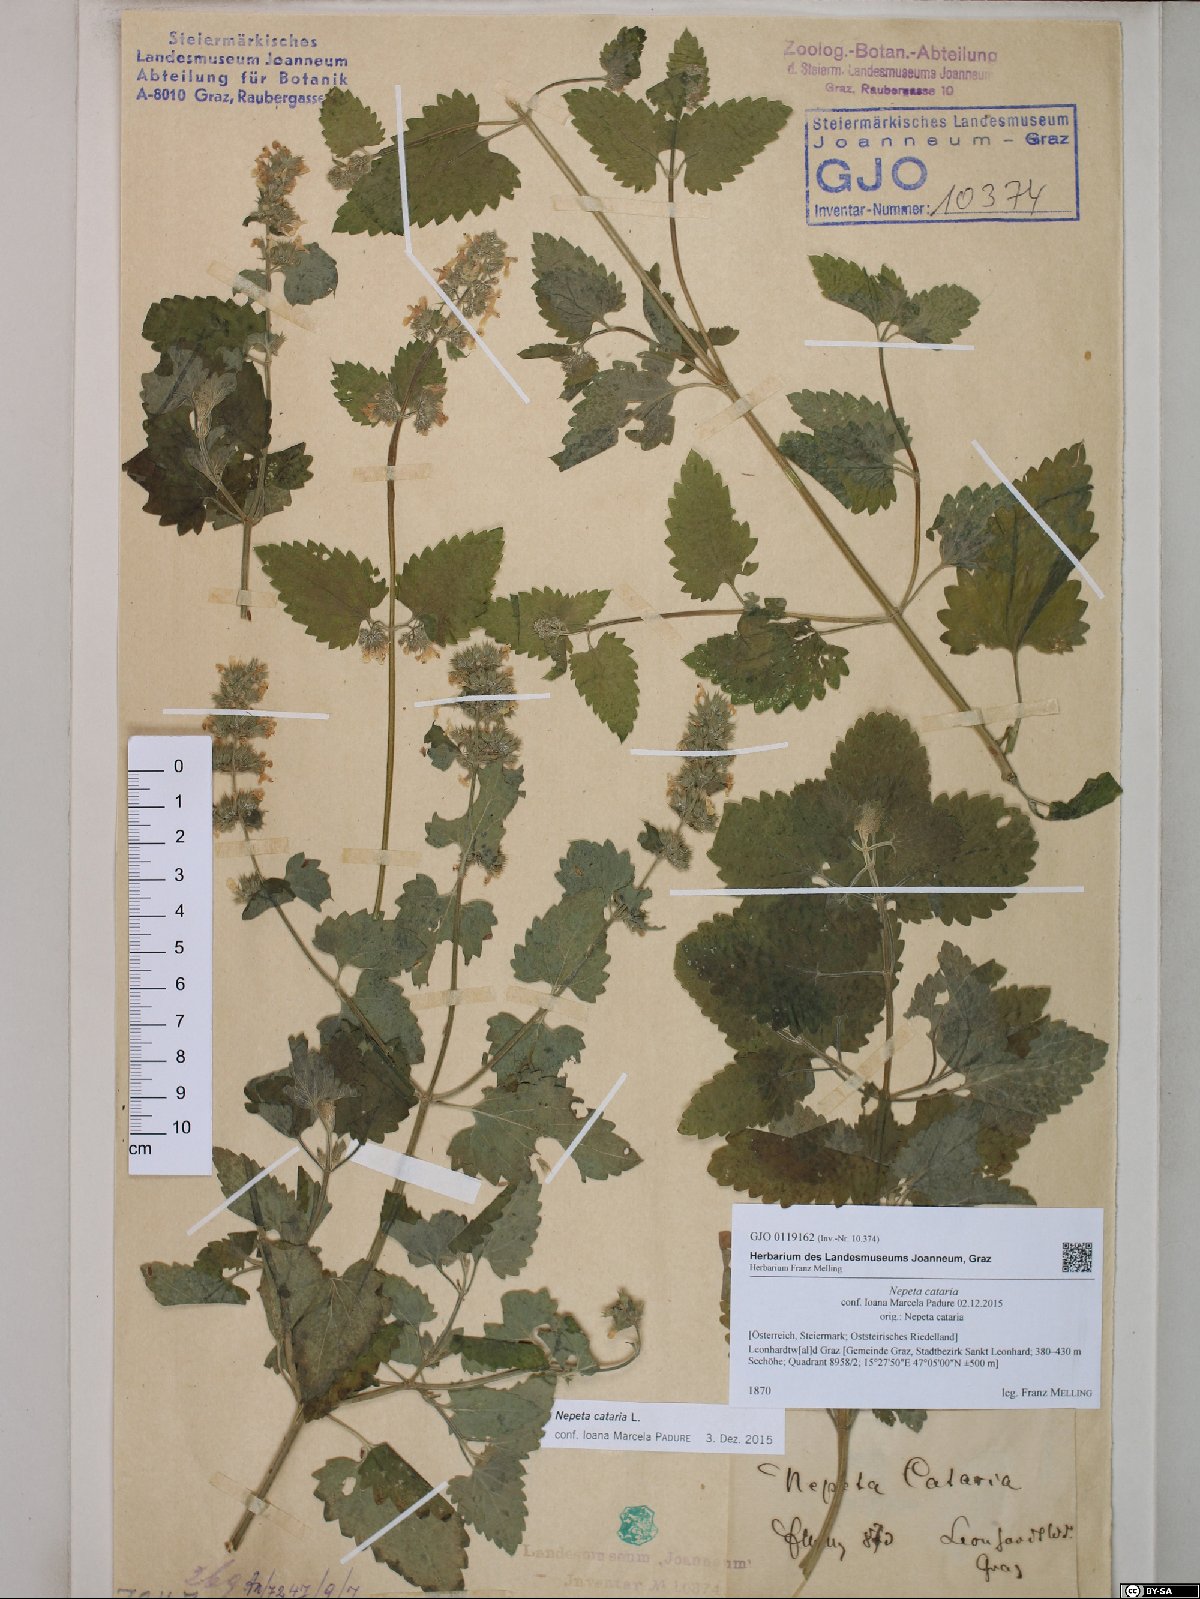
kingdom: Plantae
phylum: Tracheophyta
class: Magnoliopsida
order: Lamiales
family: Lamiaceae
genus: Nepeta
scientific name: Nepeta cataria
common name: Catnip
